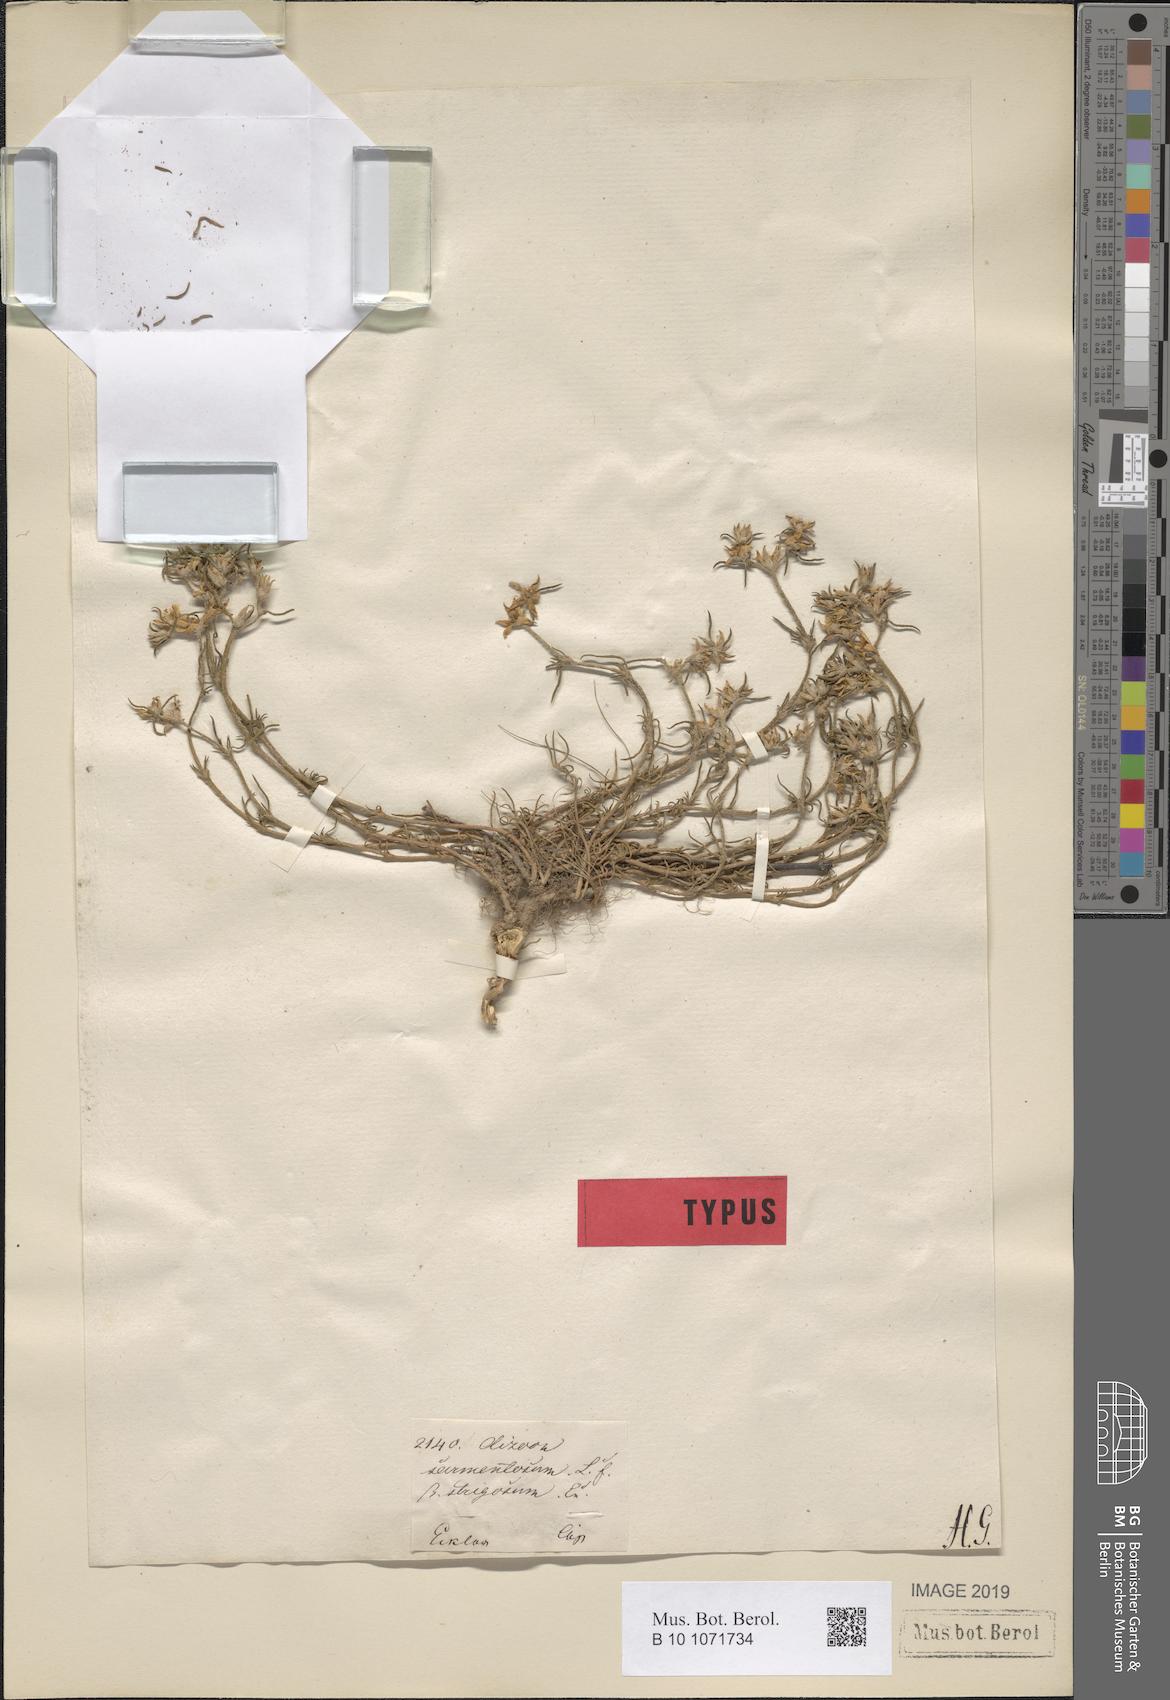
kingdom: Plantae
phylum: Tracheophyta
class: Magnoliopsida
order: Caryophyllales
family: Aizoaceae
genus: Aizoon
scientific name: Aizoon sarmentosum
